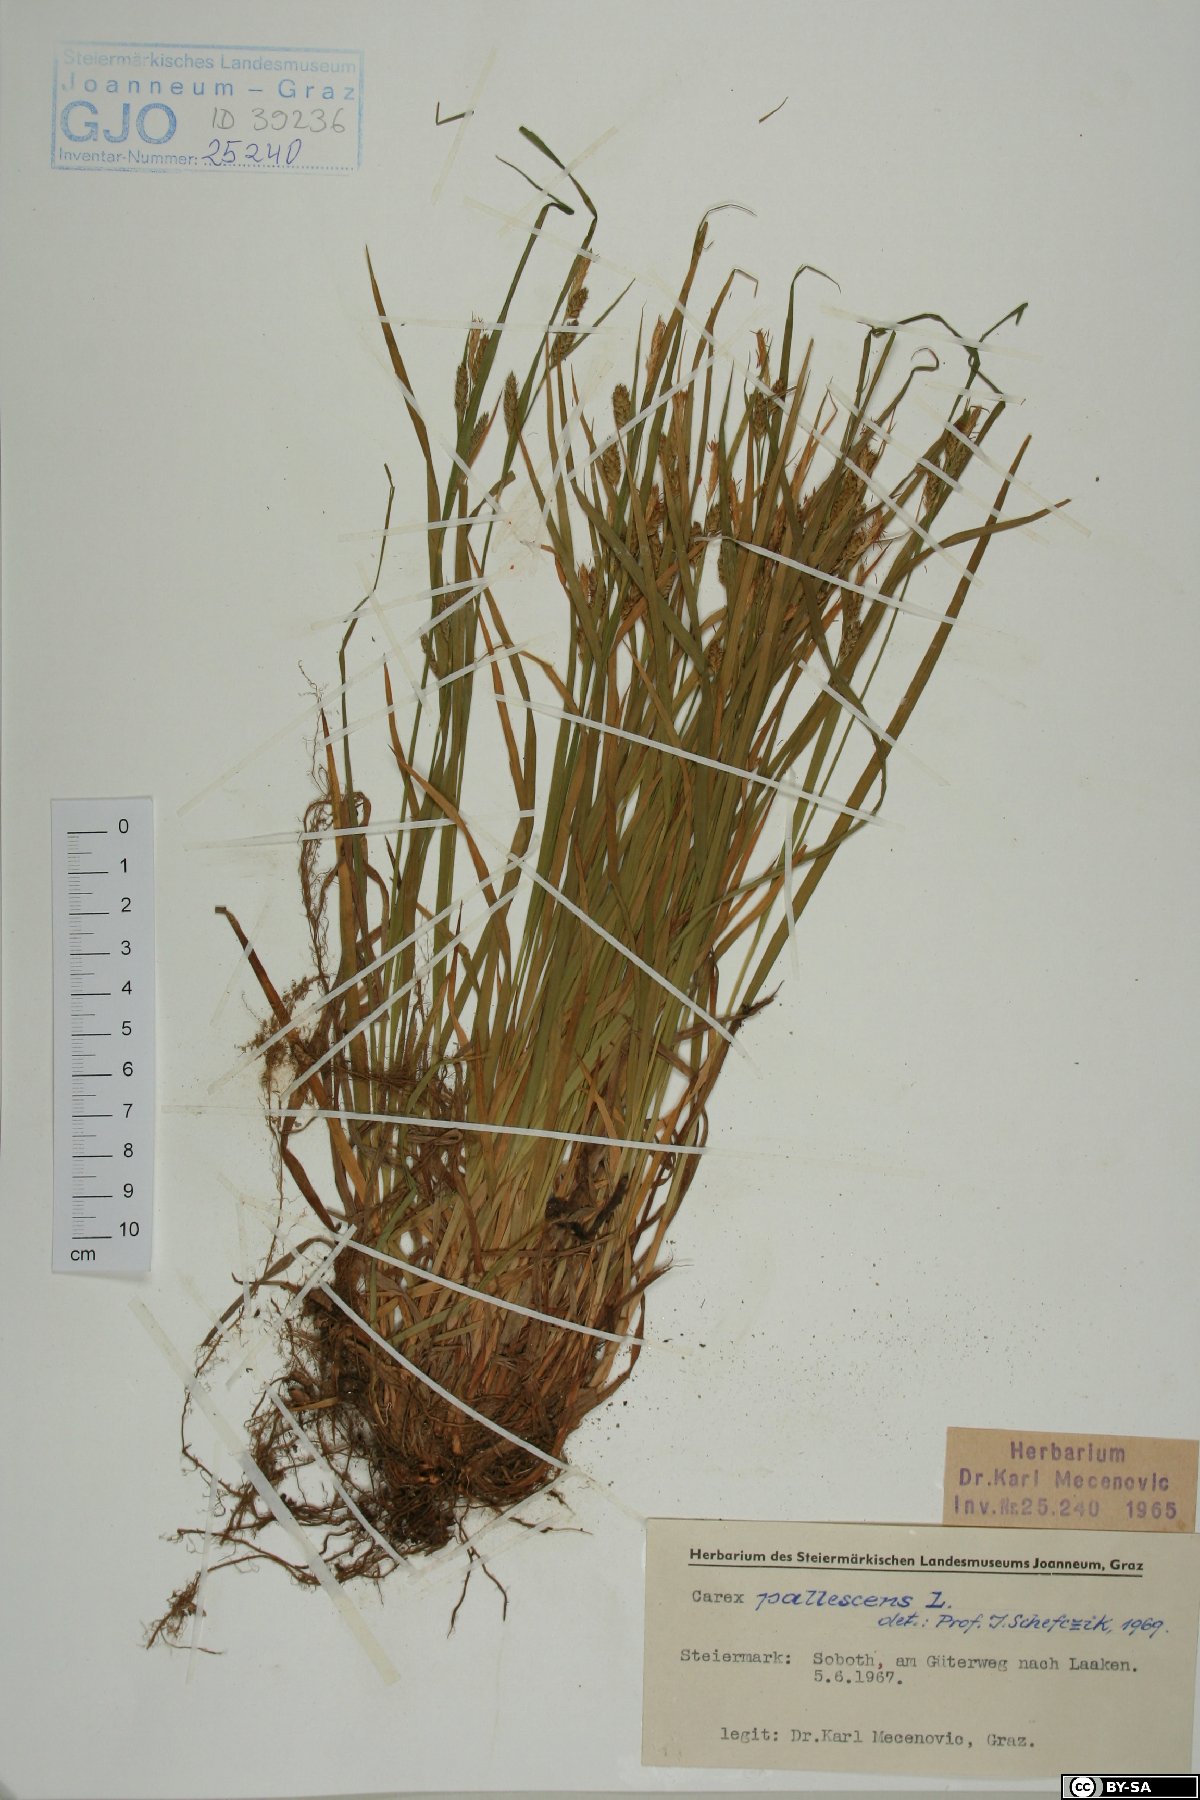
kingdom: Plantae
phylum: Tracheophyta
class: Liliopsida
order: Poales
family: Cyperaceae
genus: Carex
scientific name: Carex pallescens
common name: Pale sedge
